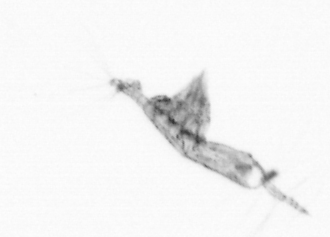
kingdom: Animalia
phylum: Arthropoda
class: Copepoda
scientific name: Copepoda
